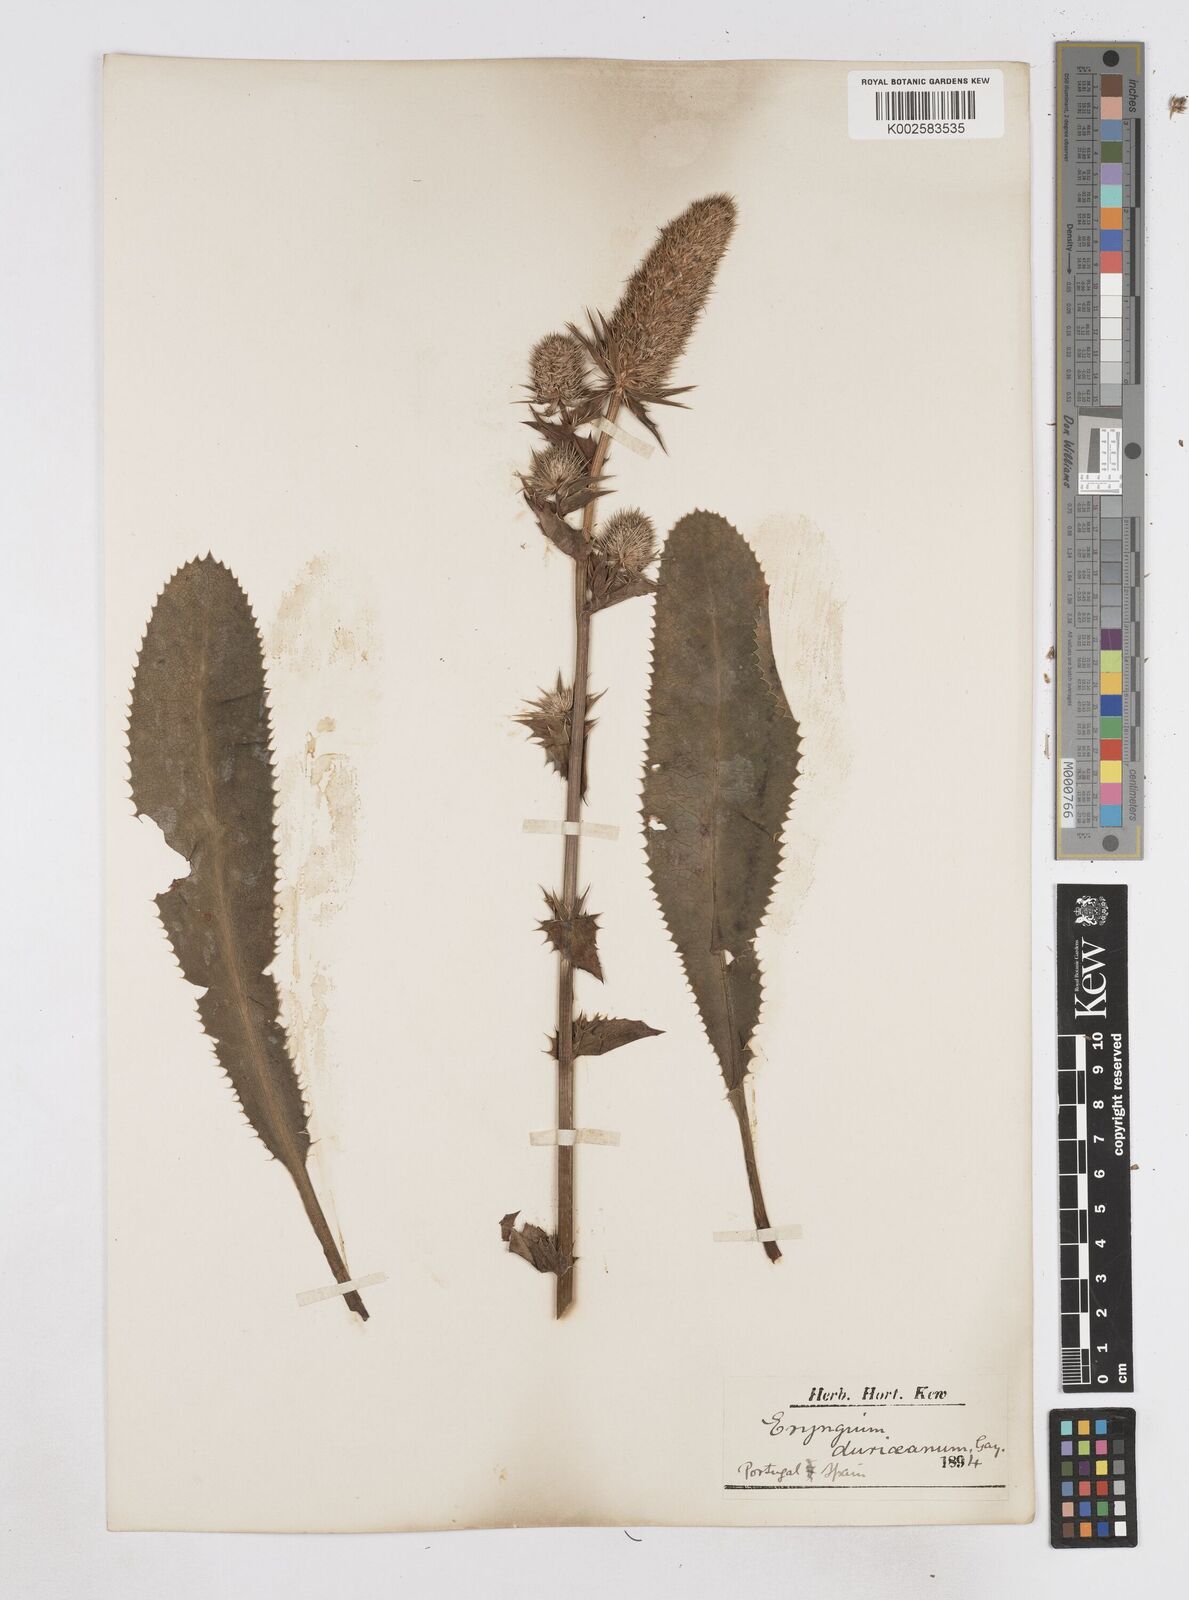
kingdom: Plantae
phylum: Tracheophyta
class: Magnoliopsida
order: Apiales
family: Apiaceae
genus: Eryngium
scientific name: Eryngium duriaei
